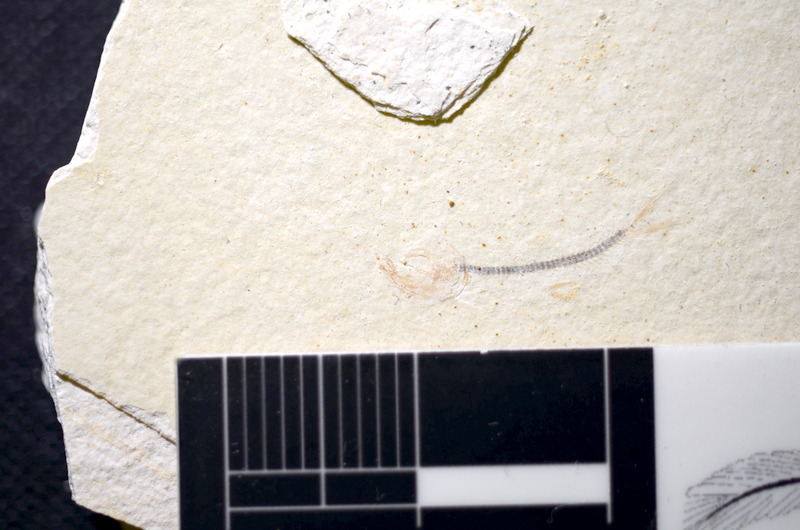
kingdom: Animalia
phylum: Chordata
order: Salmoniformes
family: Orthogonikleithridae
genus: Orthogonikleithrus
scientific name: Orthogonikleithrus hoelli
